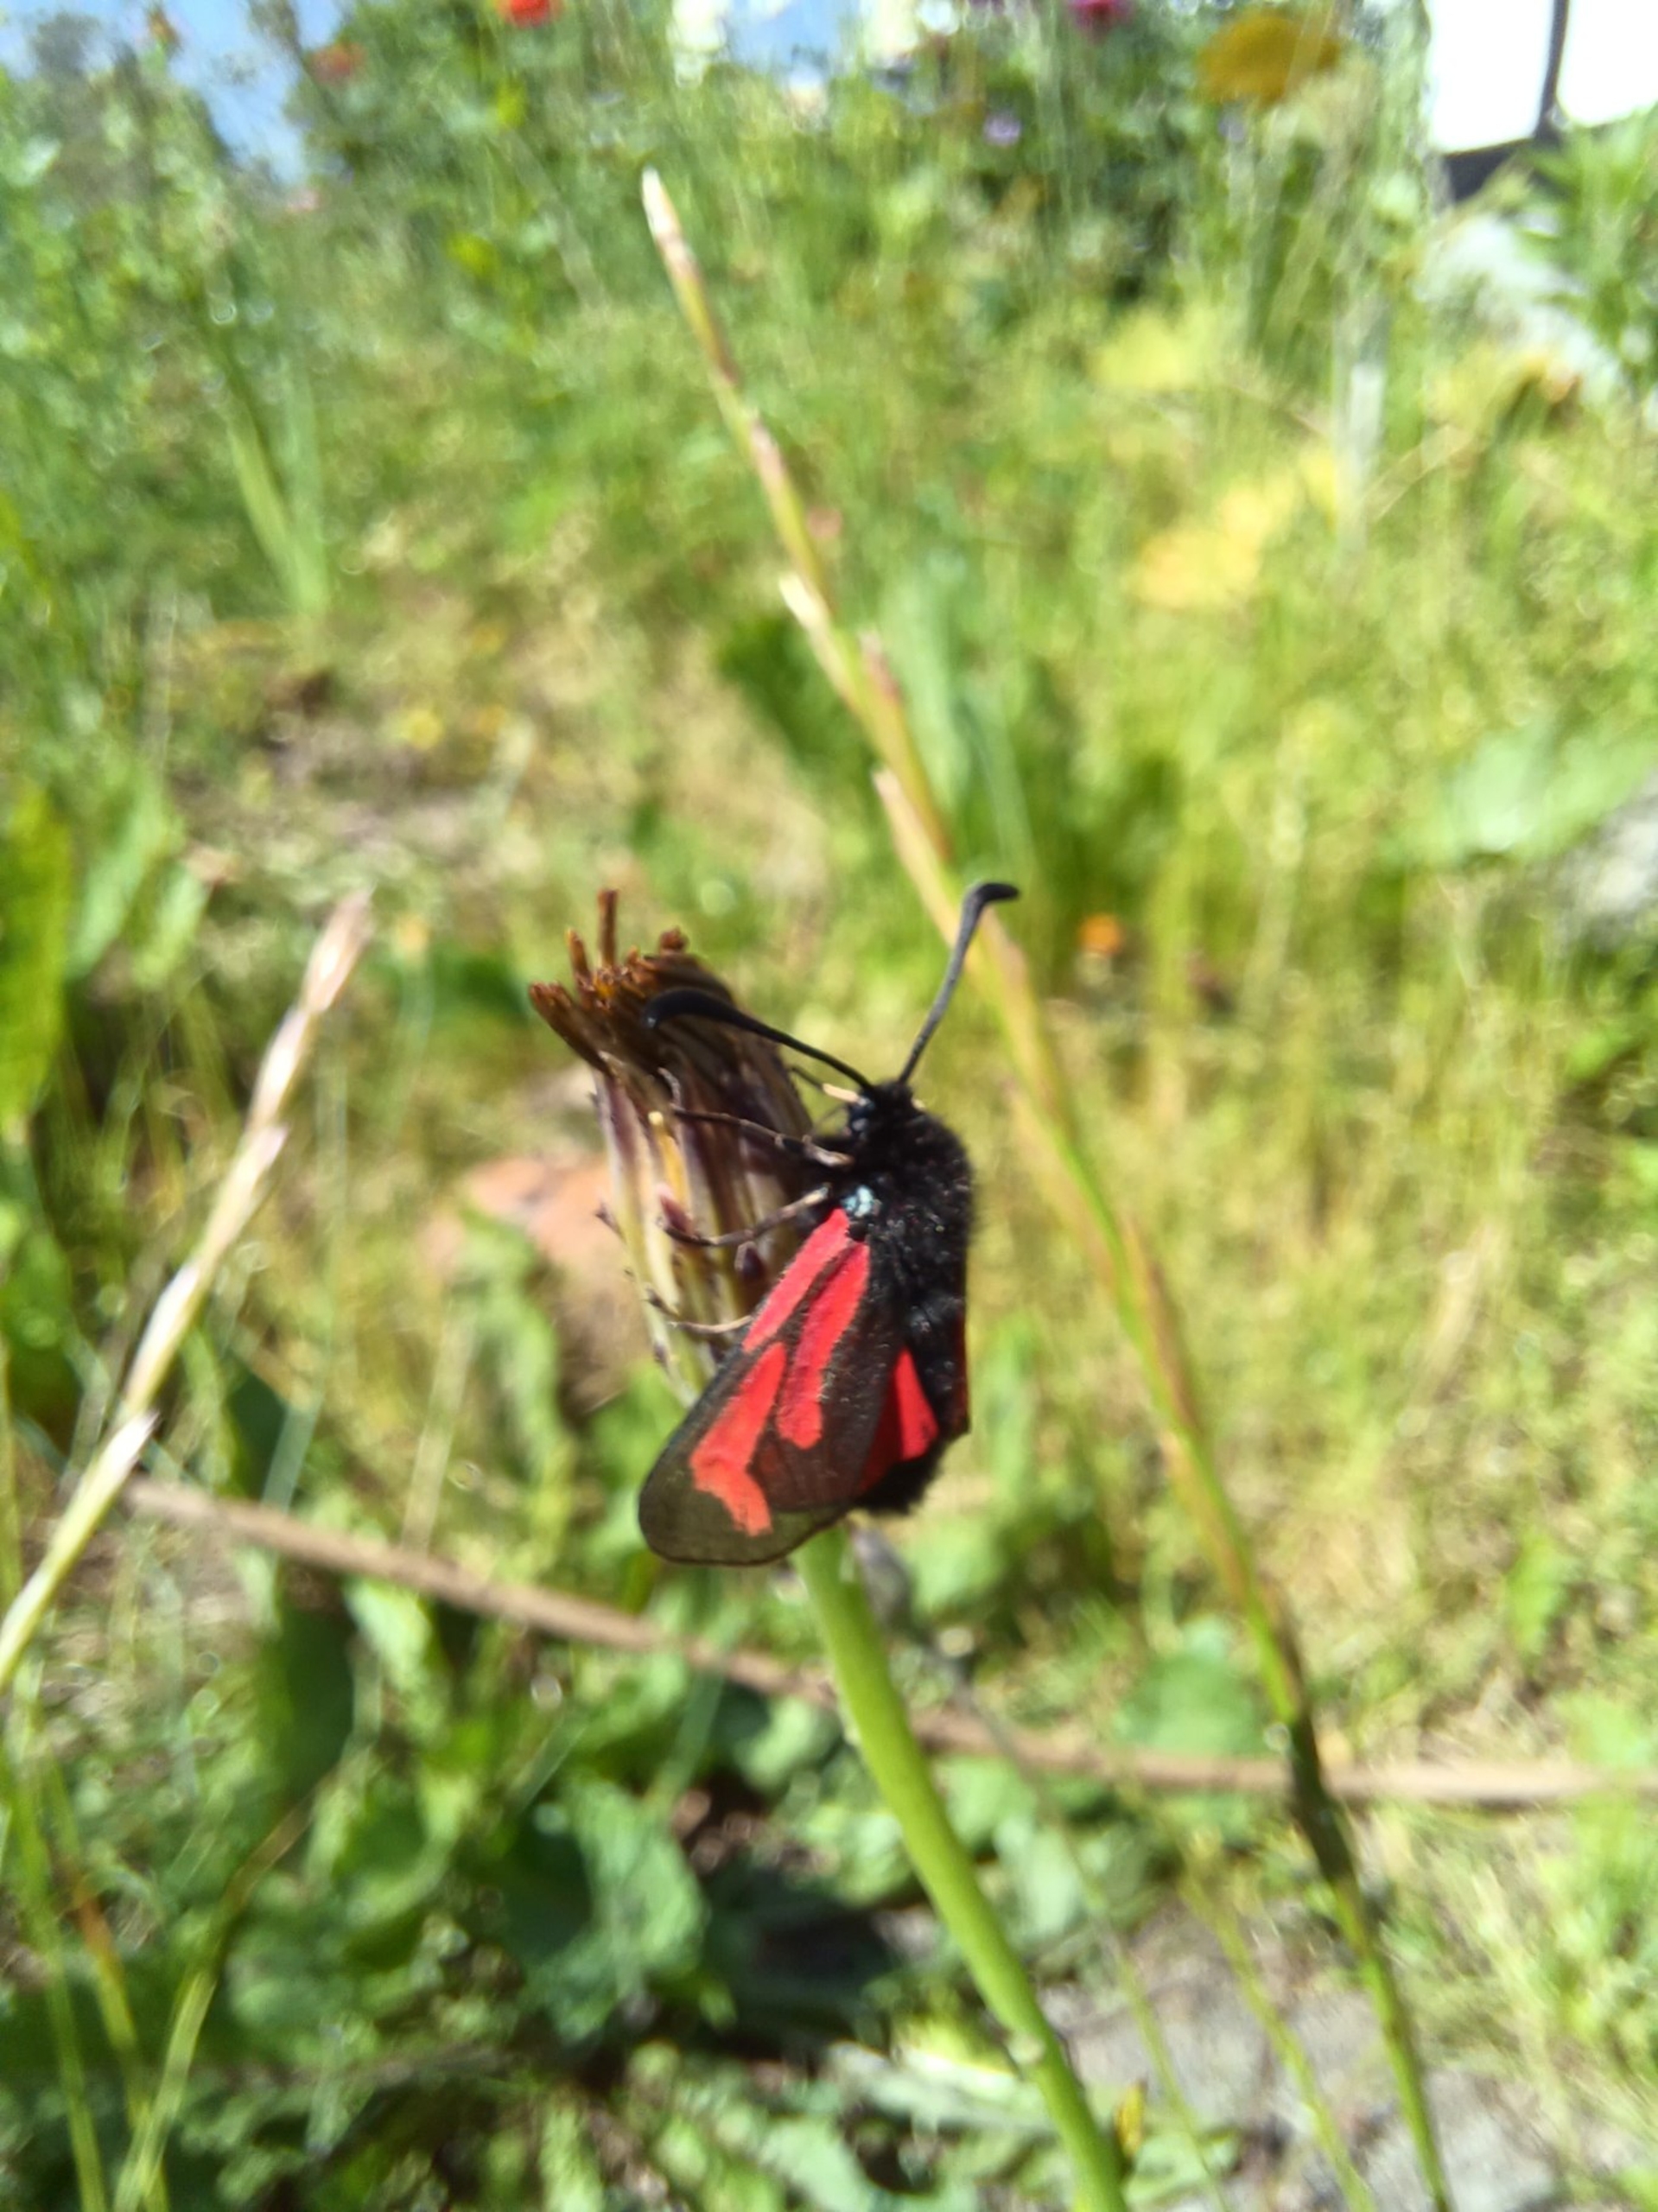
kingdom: Animalia
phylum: Arthropoda
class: Insecta
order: Lepidoptera
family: Zygaenidae
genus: Zygaena
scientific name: Zygaena minos
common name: Pimpernelkøllesværmer
